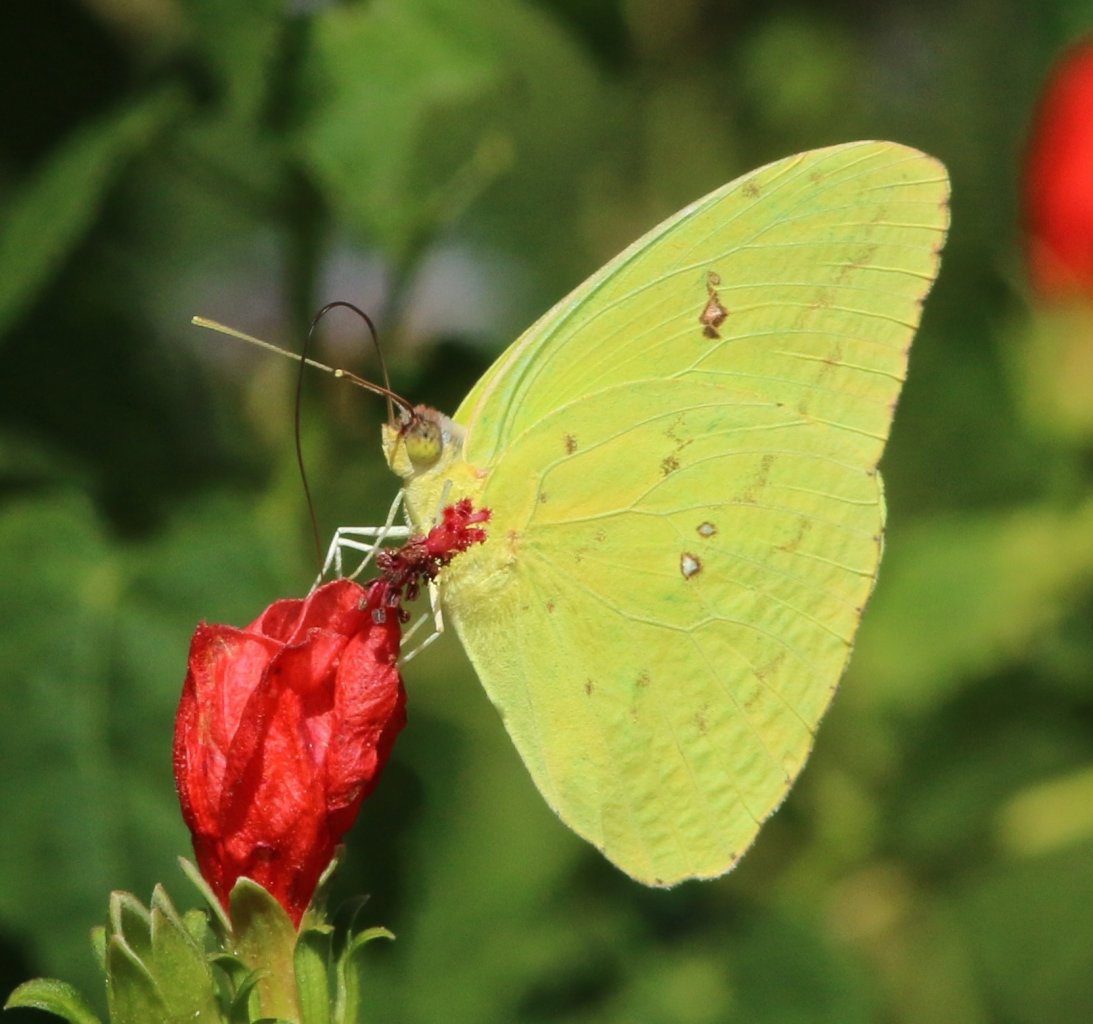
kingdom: Animalia
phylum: Arthropoda
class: Insecta
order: Lepidoptera
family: Pieridae
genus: Phoebis
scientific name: Phoebis sennae
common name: Cloudless Sulphur
